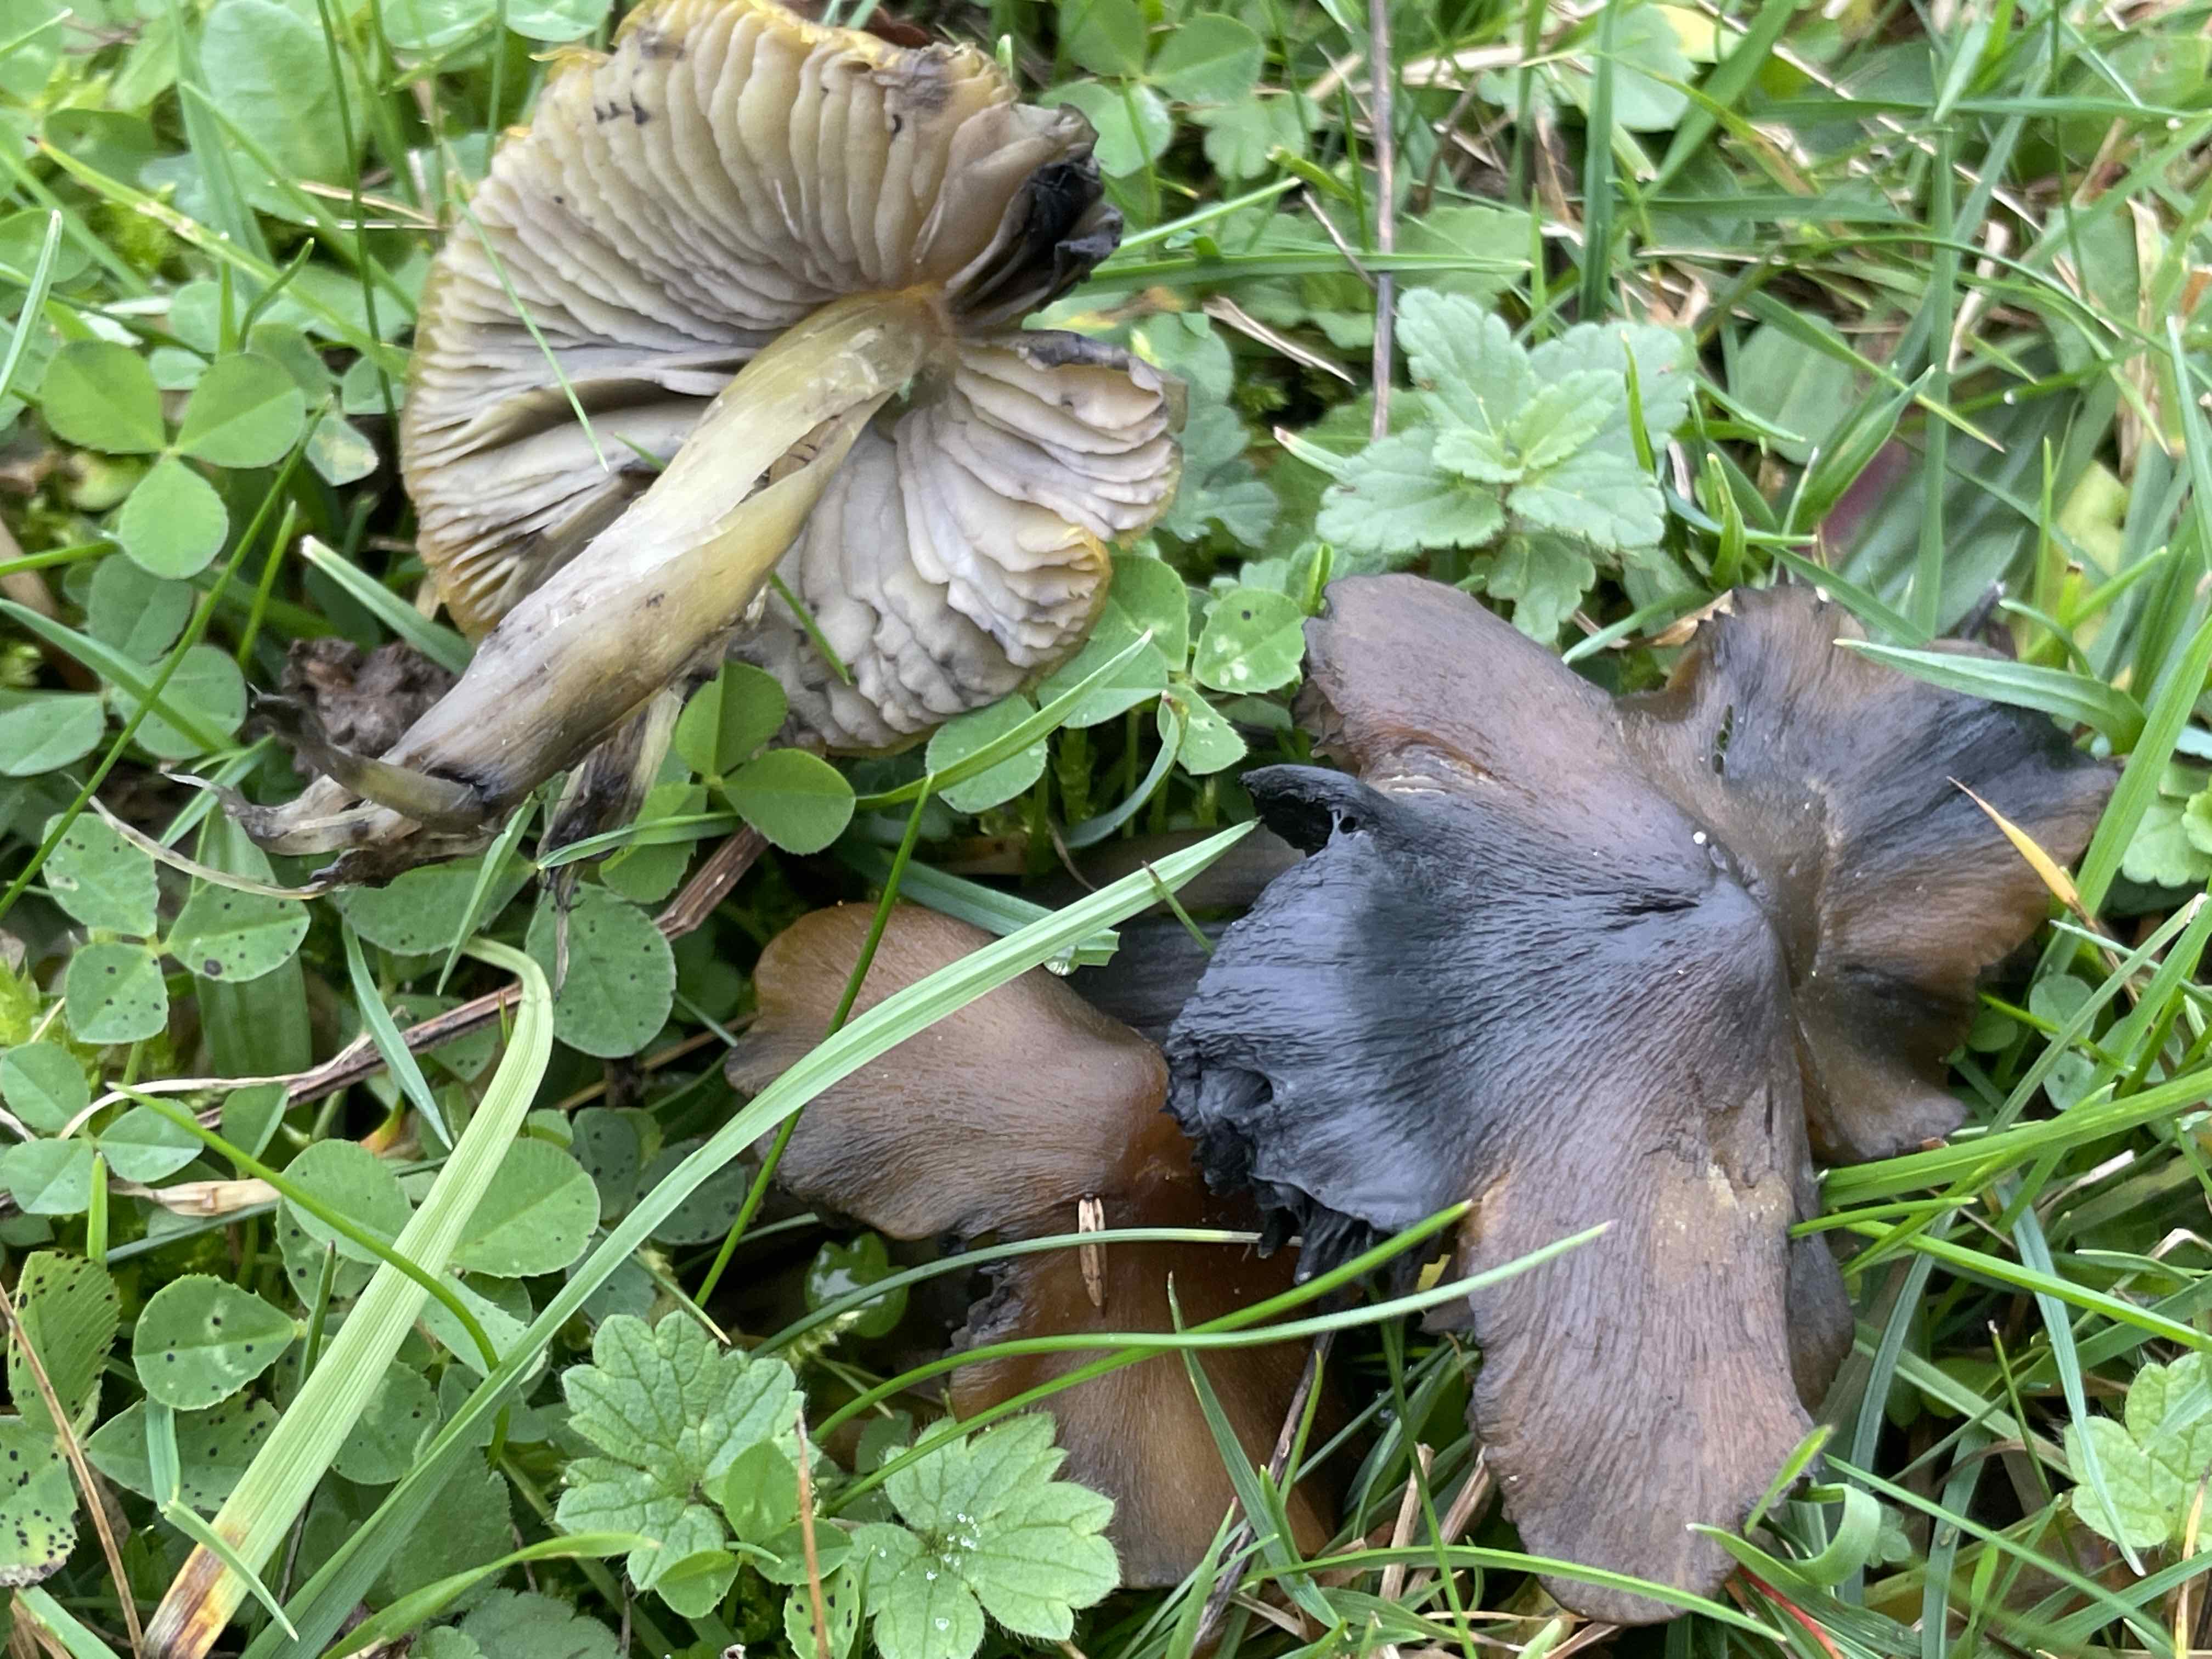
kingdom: Fungi
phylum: Basidiomycota
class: Agaricomycetes
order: Agaricales
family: Hygrophoraceae
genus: Hygrocybe
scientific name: Hygrocybe conica
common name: kegle-vokshat
